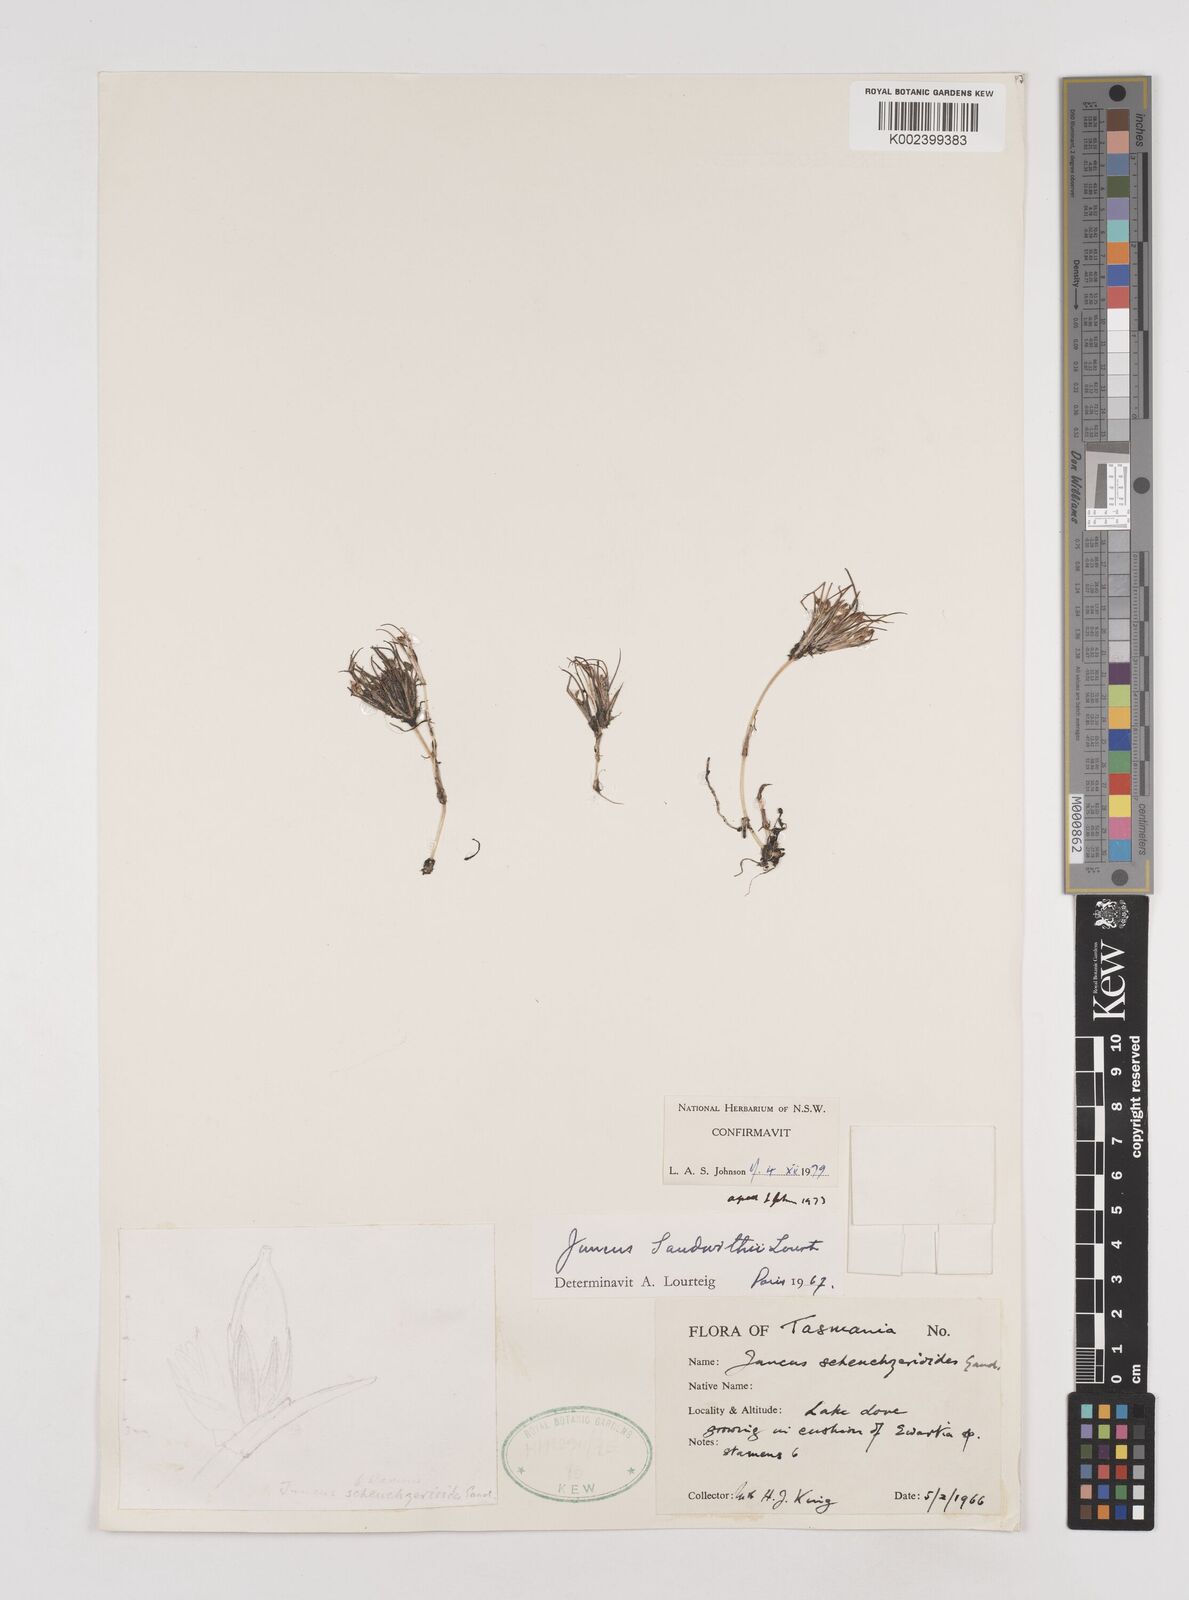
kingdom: Plantae
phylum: Tracheophyta
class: Liliopsida
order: Poales
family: Juncaceae
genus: Juncus
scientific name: Juncus sandwithii
